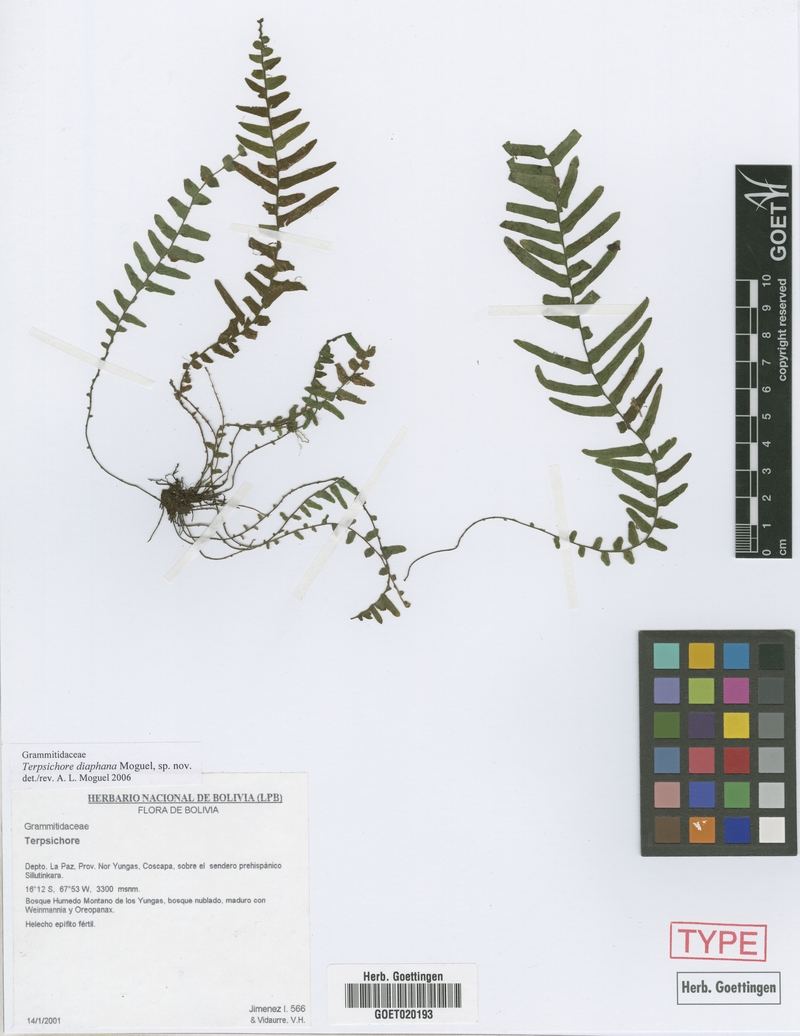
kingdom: Plantae
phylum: Tracheophyta
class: Polypodiopsida
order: Polypodiales
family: Polypodiaceae
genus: Alansmia
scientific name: Alansmia diaphana
